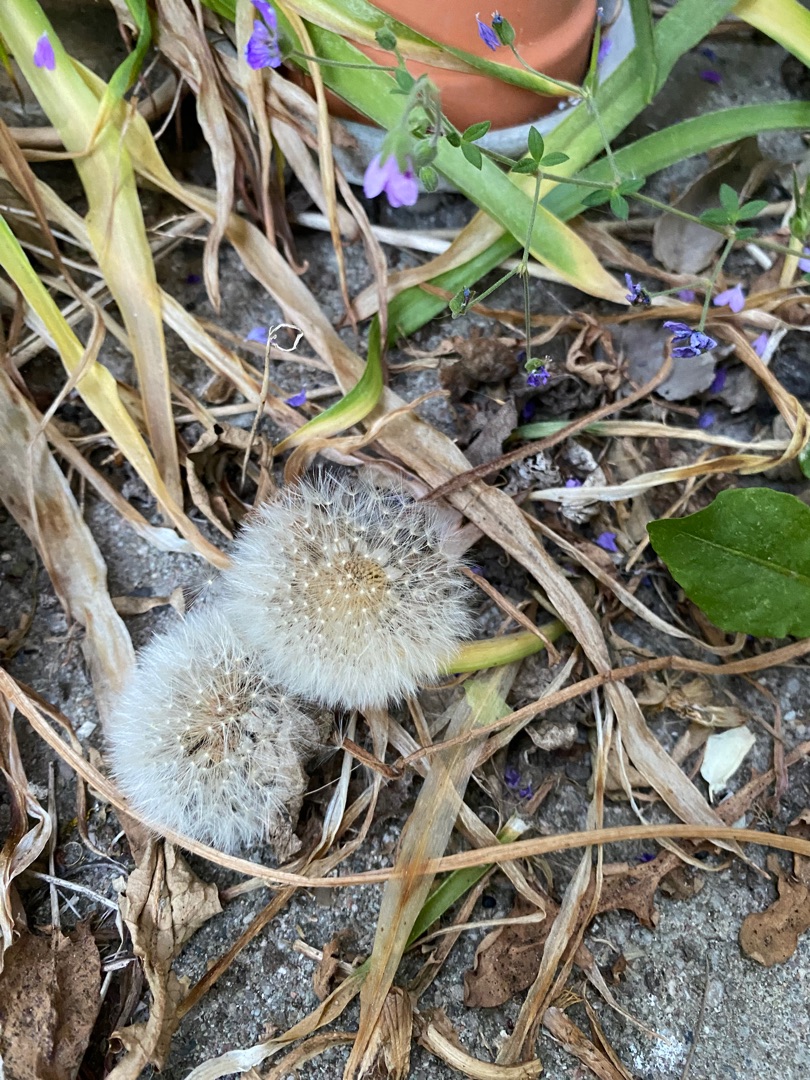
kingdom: Plantae
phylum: Tracheophyta
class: Magnoliopsida
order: Asterales
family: Asteraceae
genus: Taraxacum
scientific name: Taraxacum
